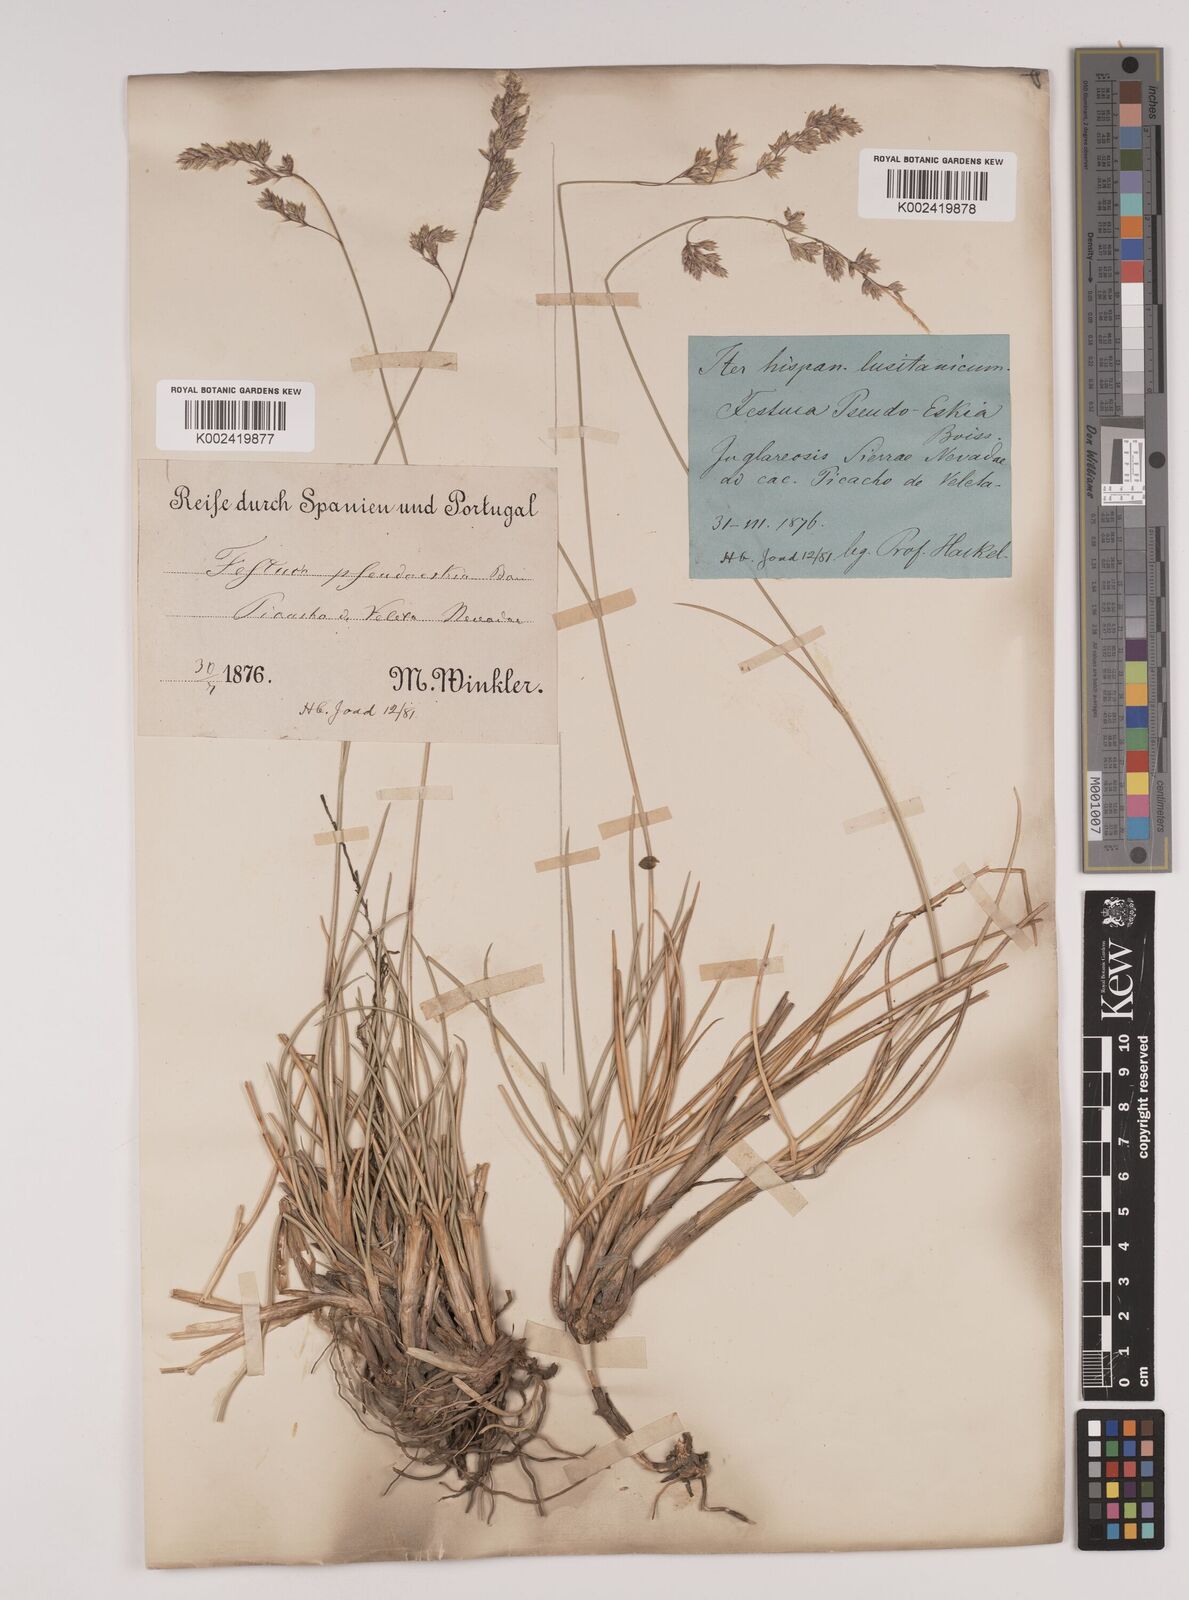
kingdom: Plantae
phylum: Tracheophyta
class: Liliopsida
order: Poales
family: Poaceae
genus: Festuca
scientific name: Festuca pseudeskia
